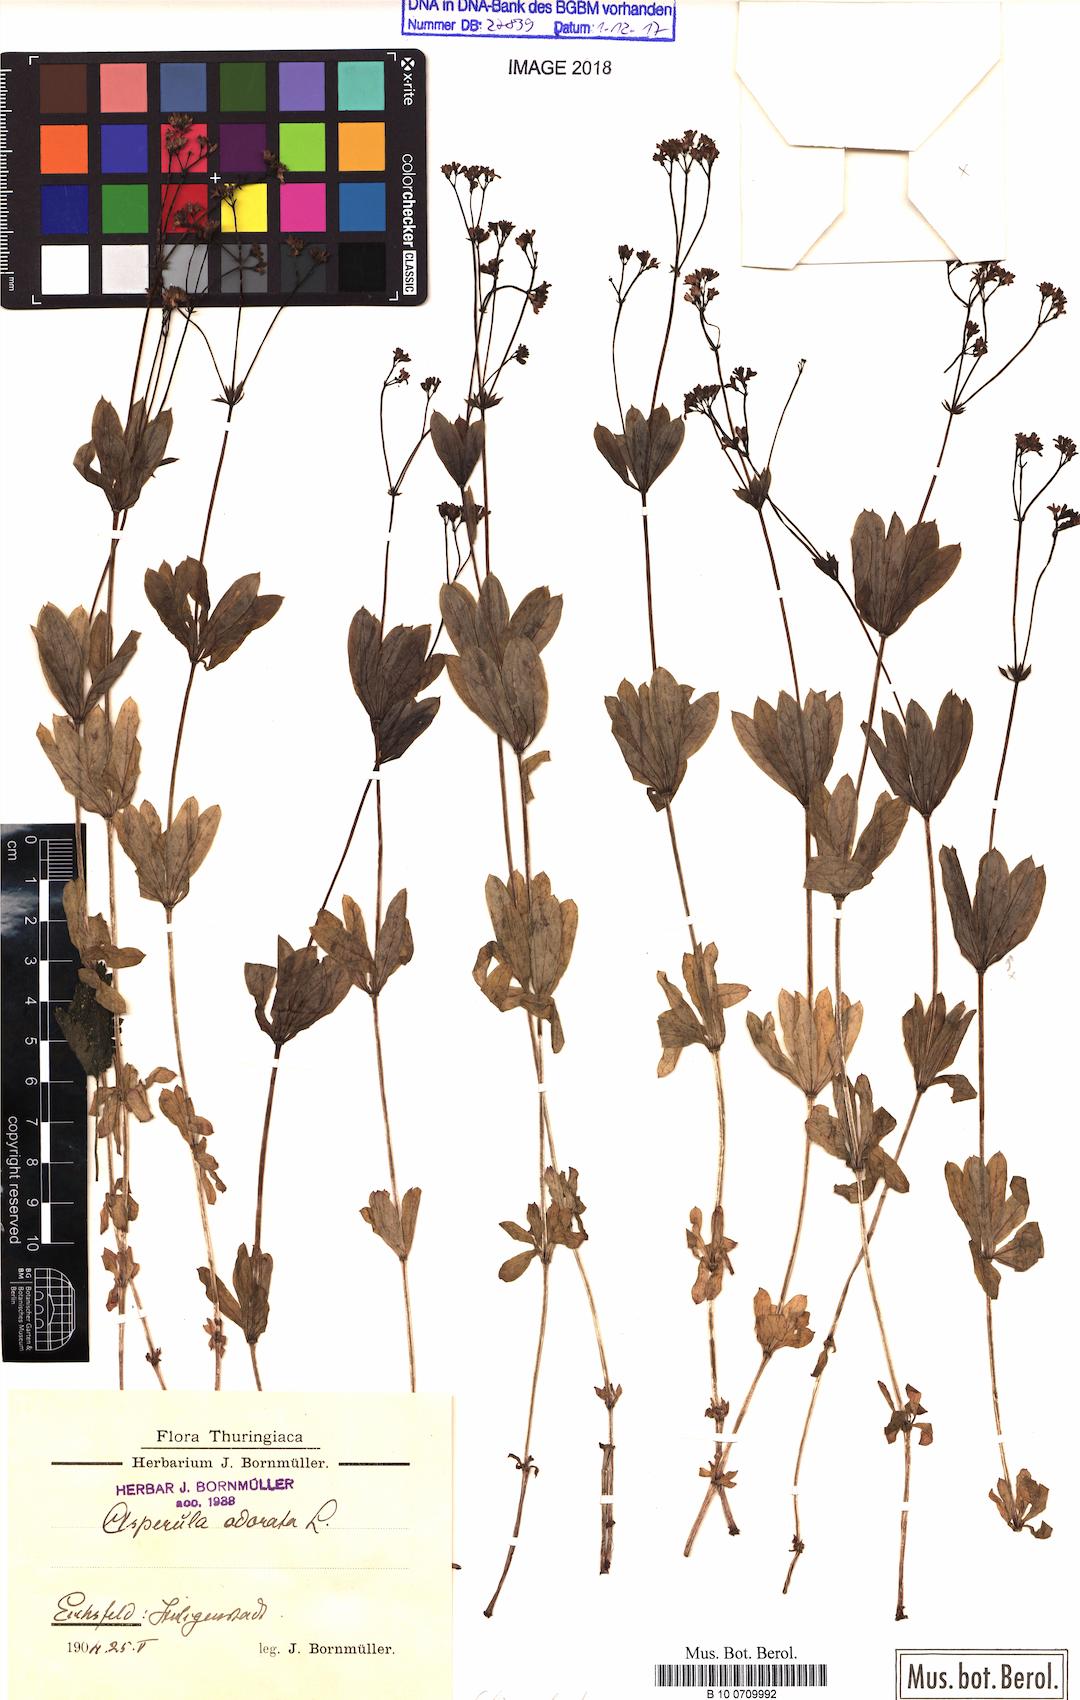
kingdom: Plantae
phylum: Tracheophyta
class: Magnoliopsida
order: Gentianales
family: Rubiaceae
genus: Galium
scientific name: Galium odoratum
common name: Sweet woodruff
